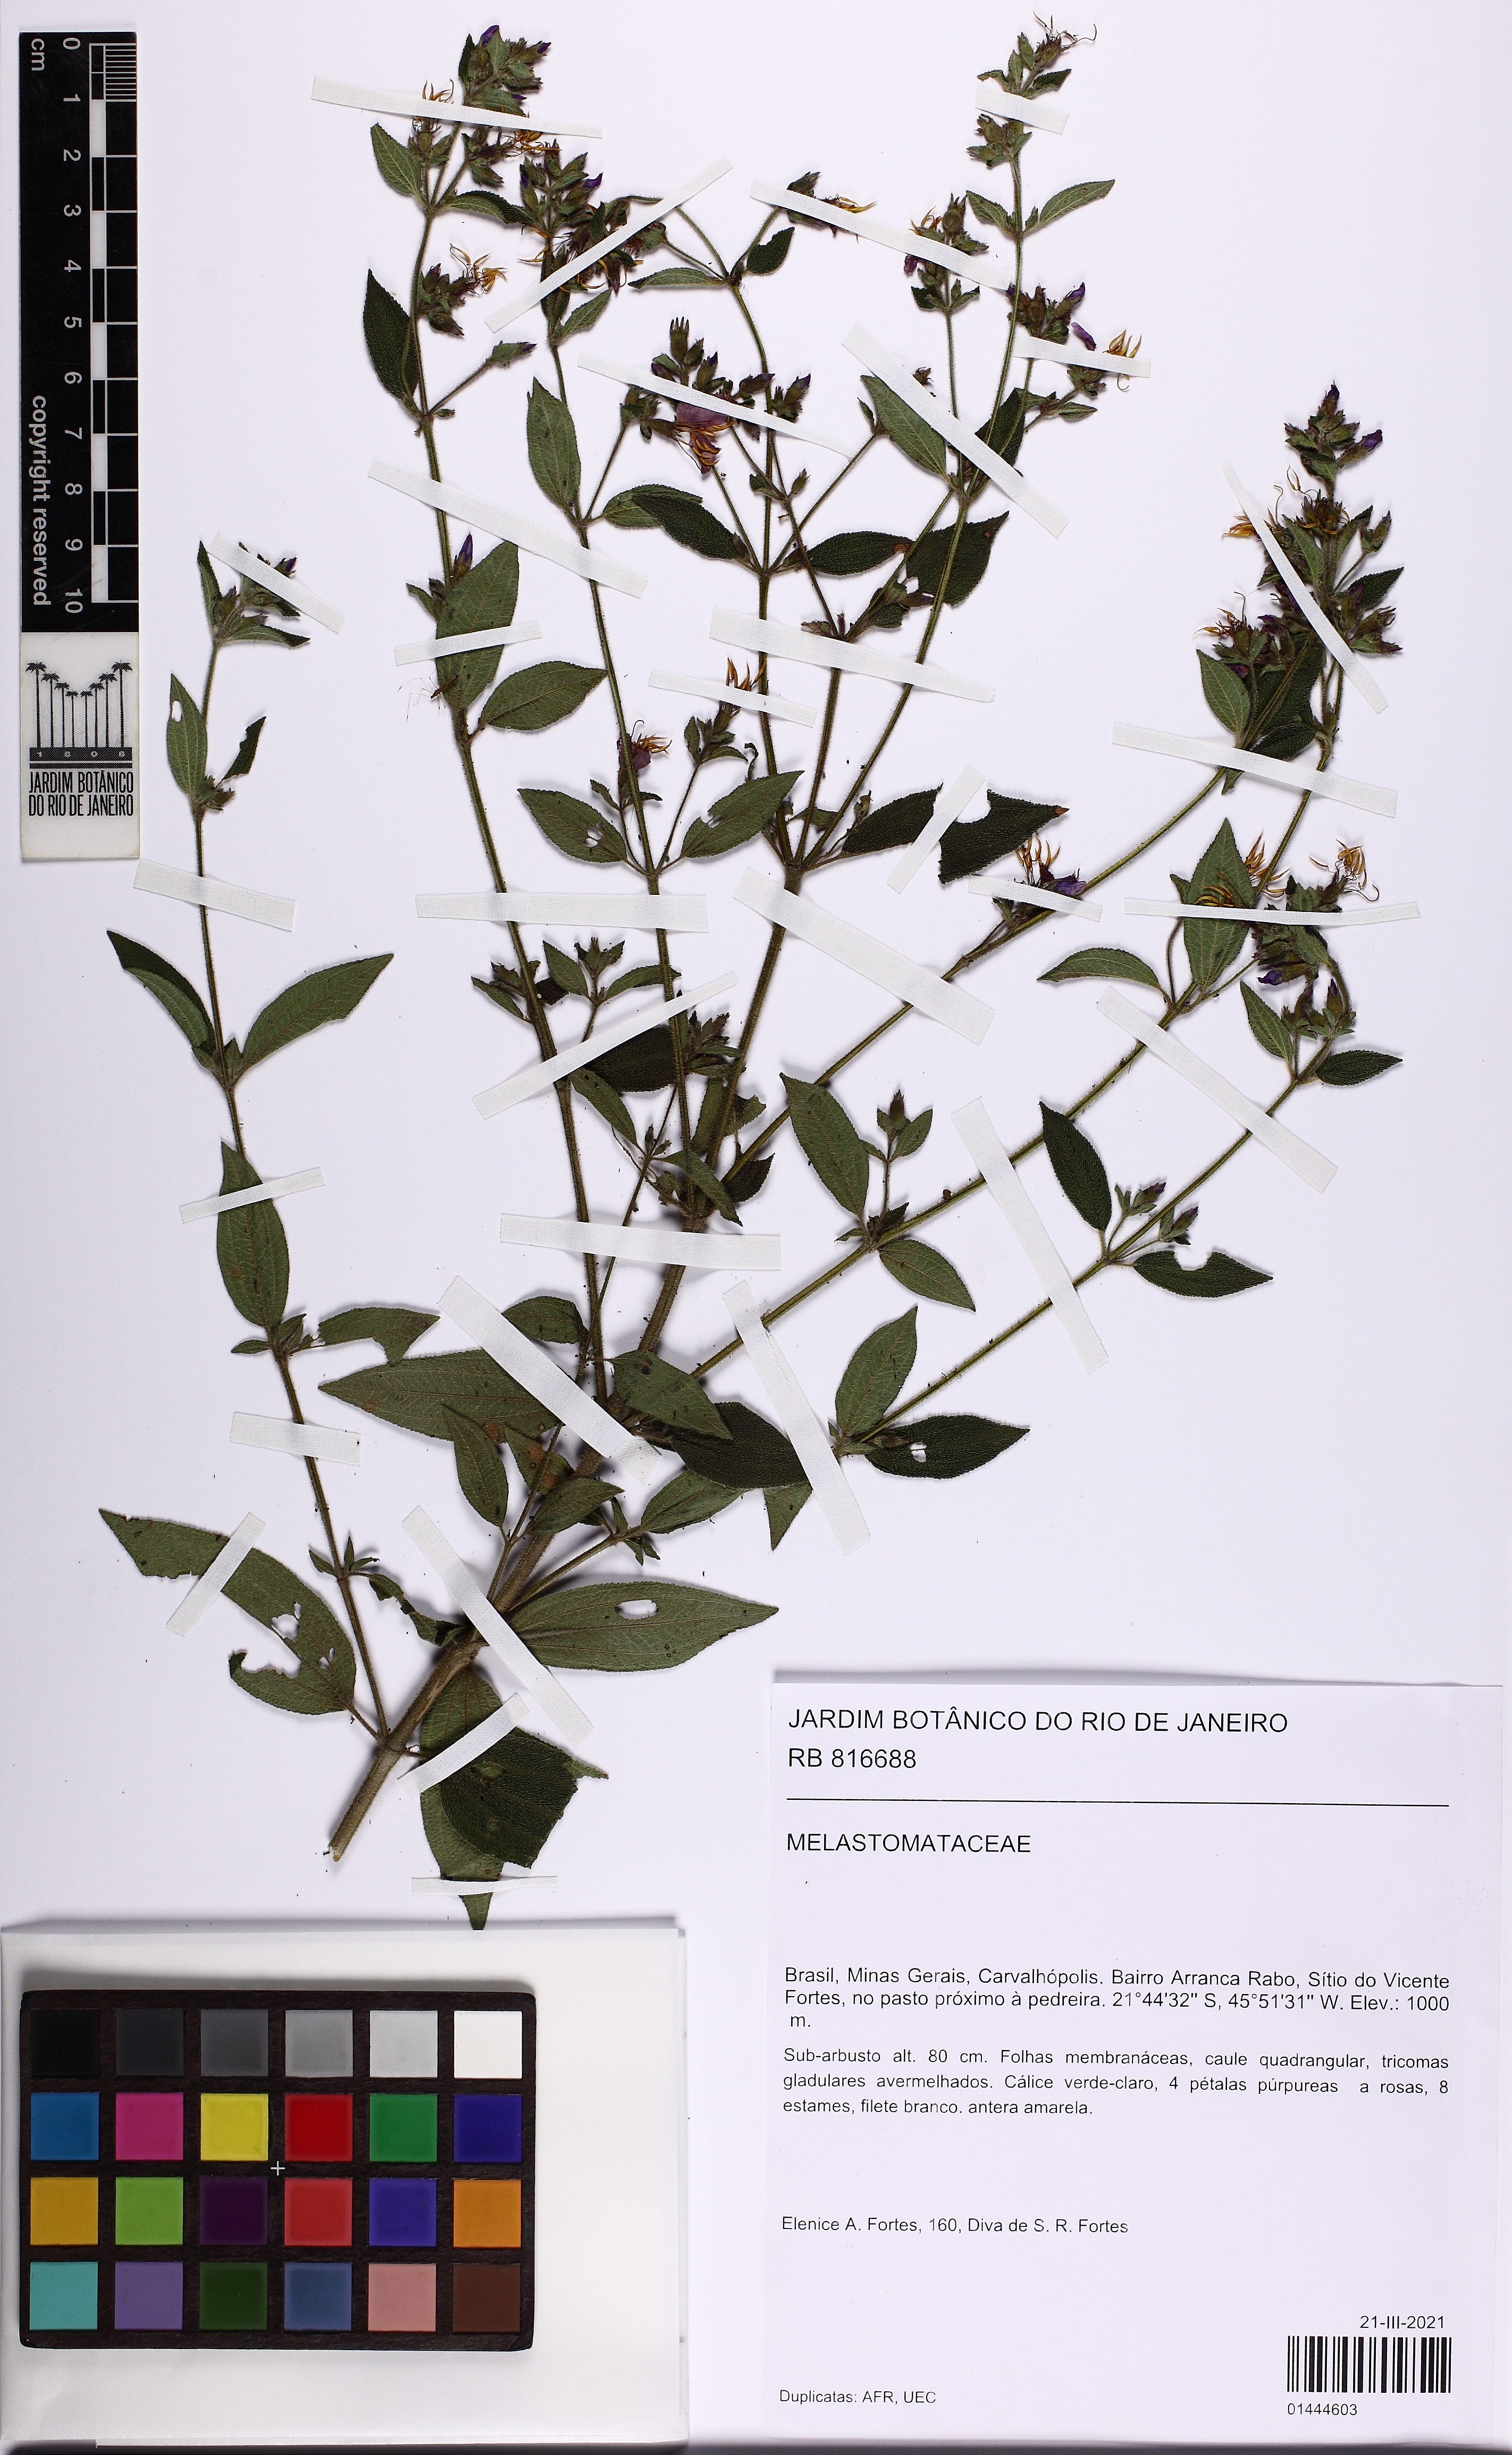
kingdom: Plantae
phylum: Tracheophyta
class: Magnoliopsida
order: Myrtales
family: Melastomataceae
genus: Chaetogastra
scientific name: Chaetogastra
